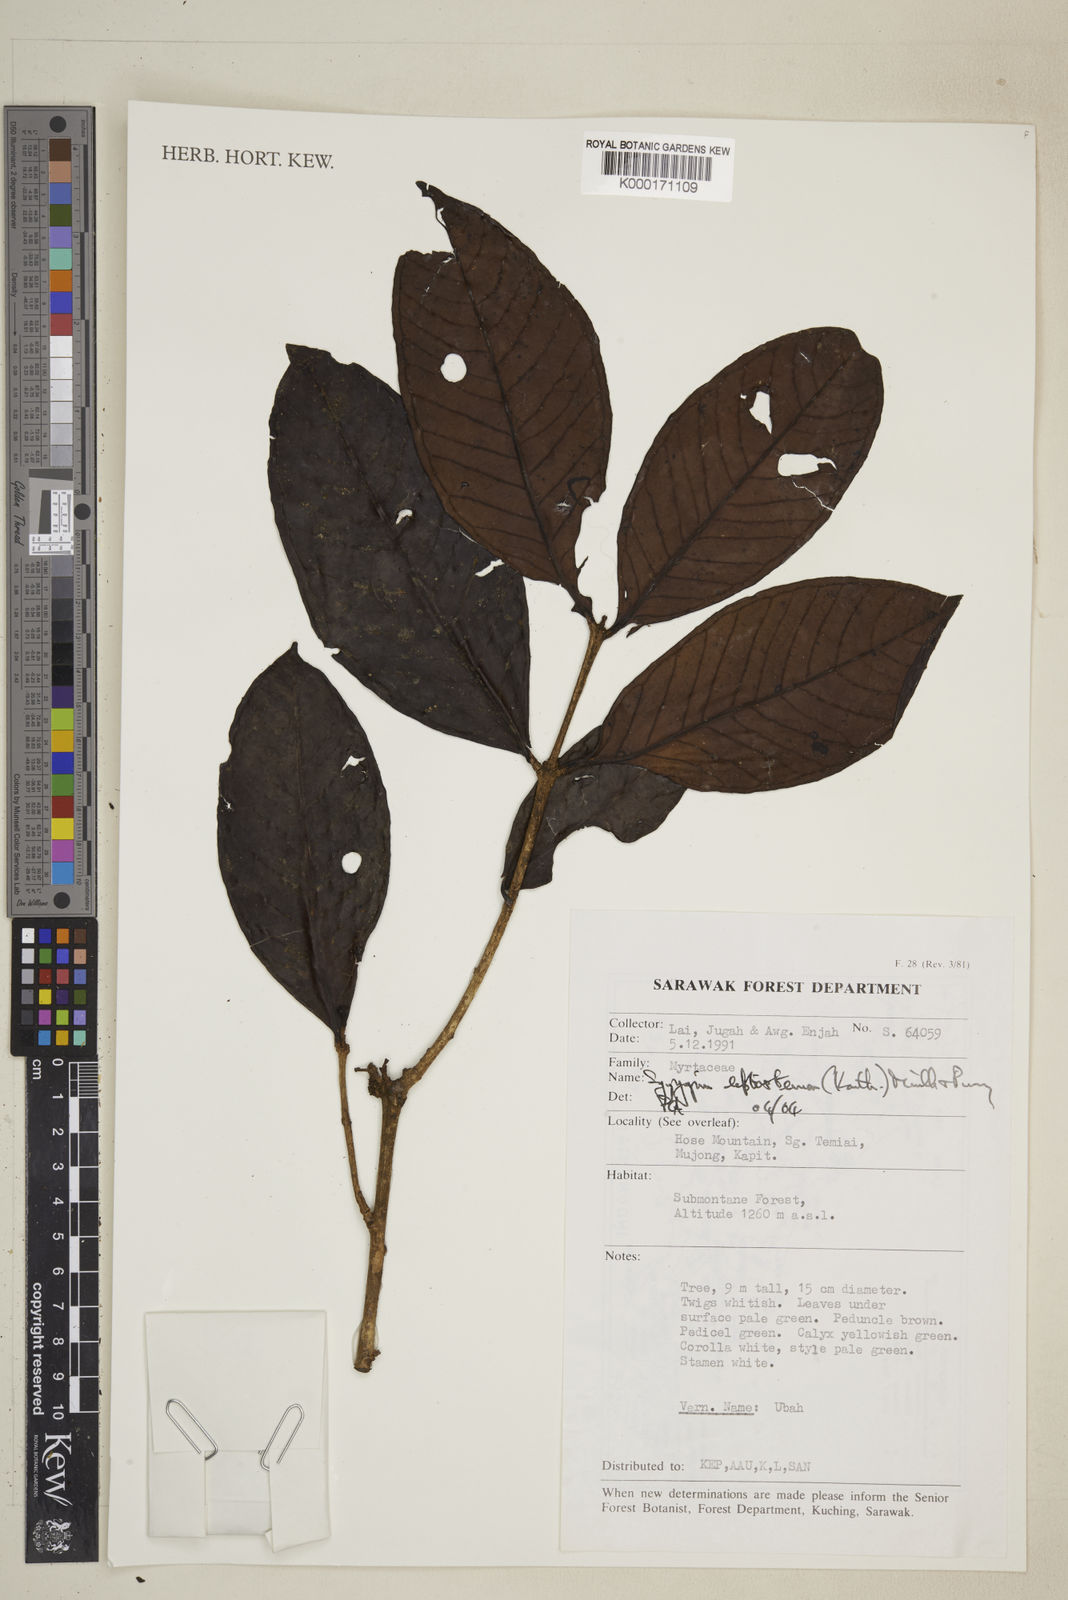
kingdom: Plantae
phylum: Tracheophyta
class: Magnoliopsida
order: Myrtales
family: Myrtaceae
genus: Syzygium
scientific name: Syzygium
